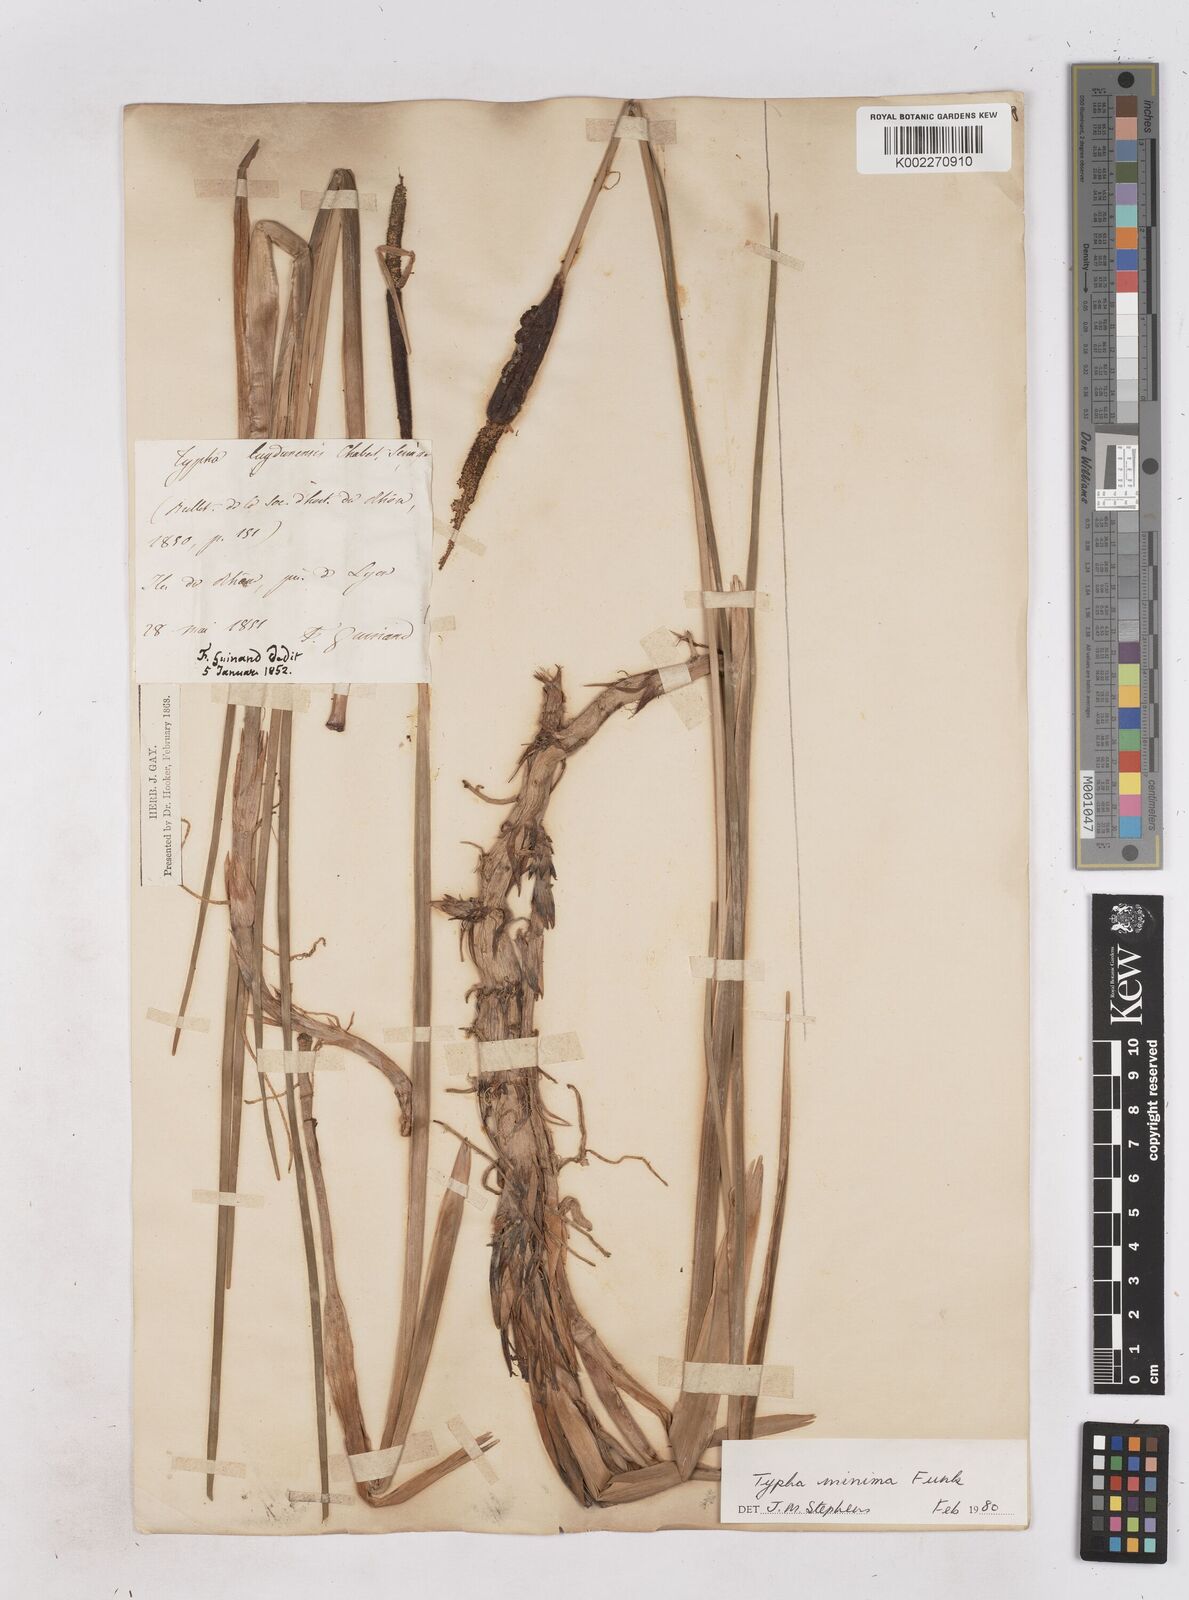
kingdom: Plantae
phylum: Tracheophyta
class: Liliopsida
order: Poales
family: Typhaceae
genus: Typha
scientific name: Typha
